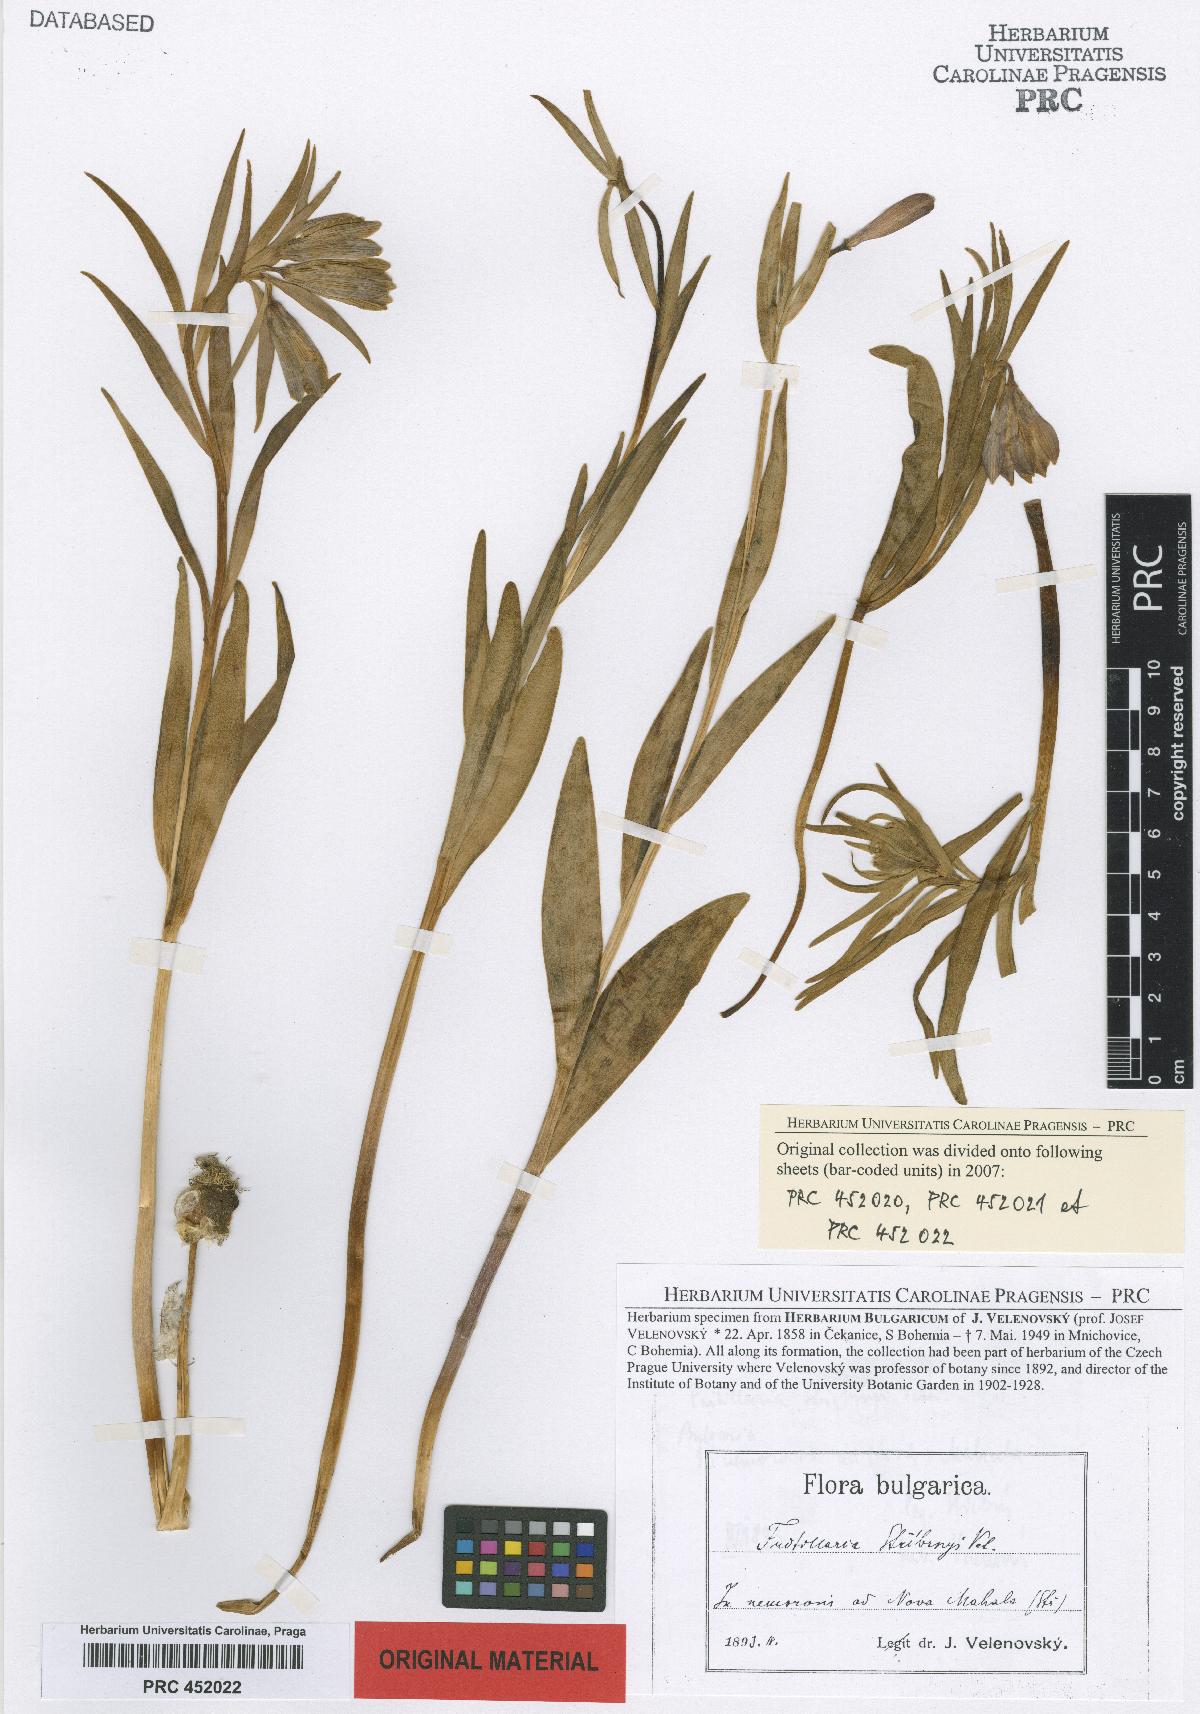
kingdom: Plantae
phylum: Tracheophyta
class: Liliopsida
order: Liliales
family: Liliaceae
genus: Fritillaria
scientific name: Fritillaria stribrnyi
